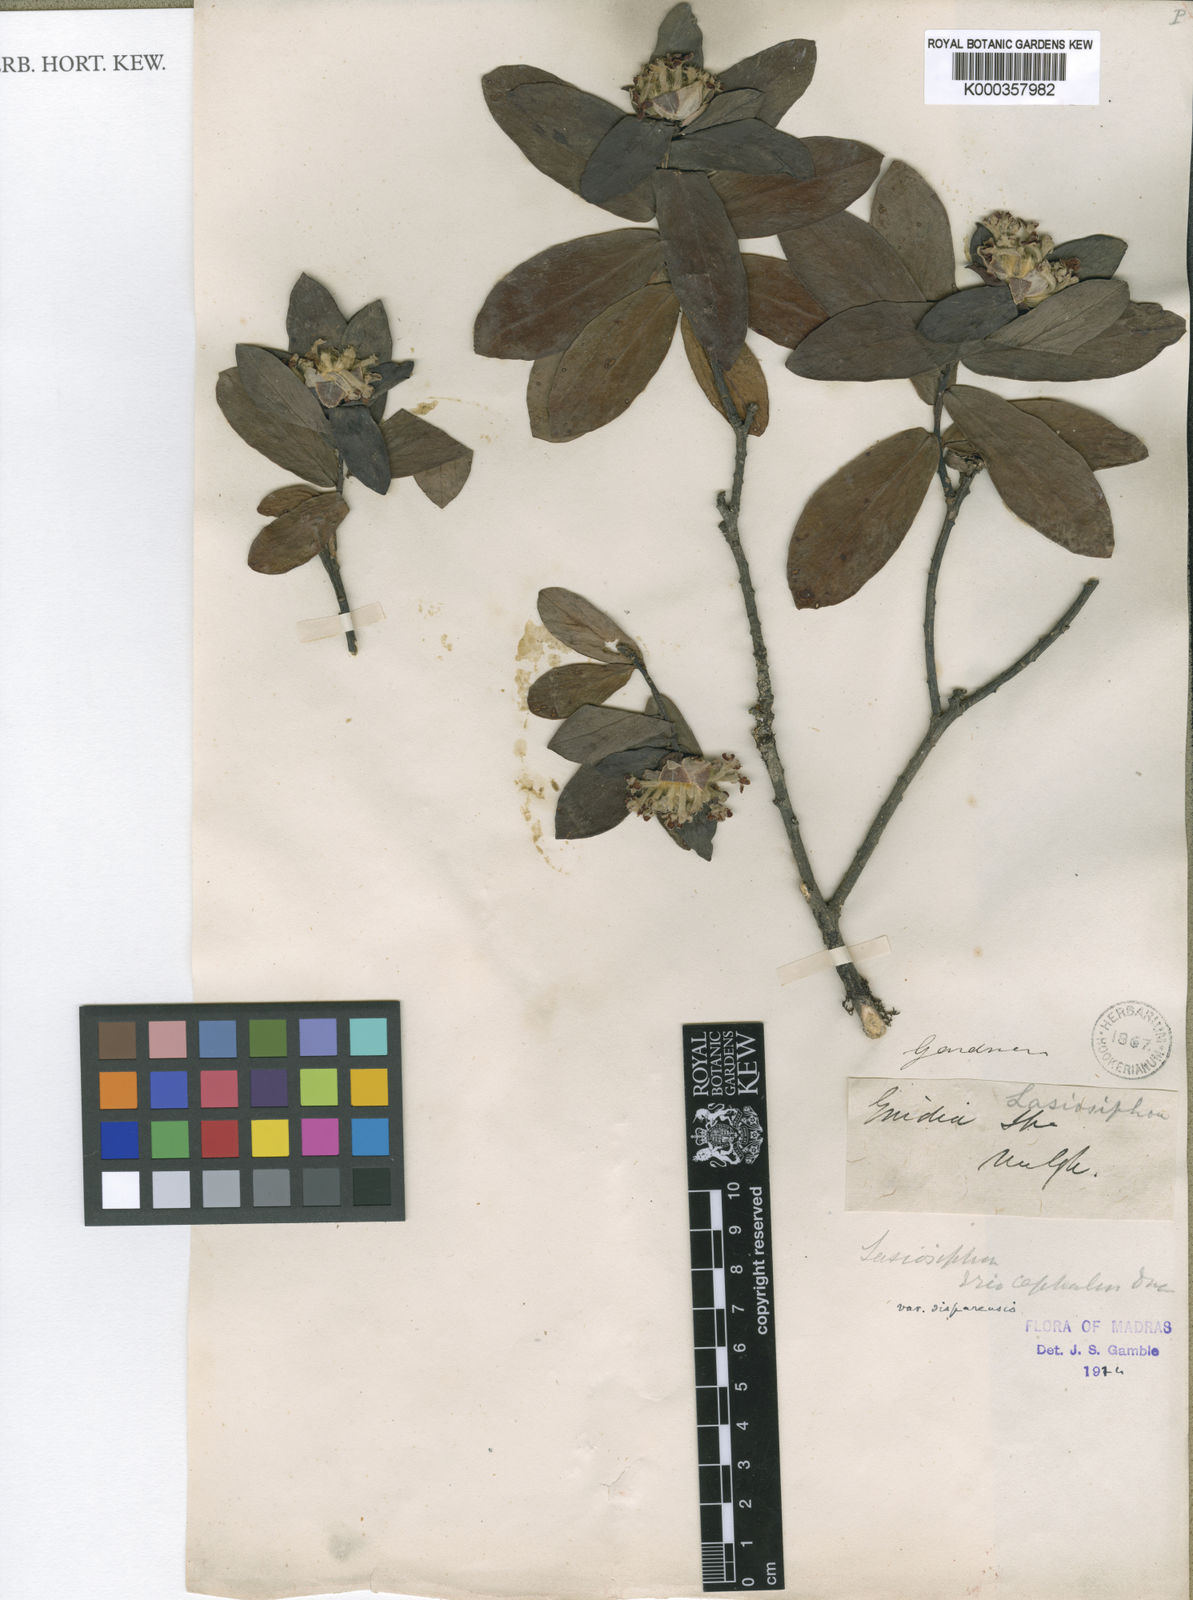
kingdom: Plantae
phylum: Tracheophyta
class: Magnoliopsida
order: Malvales
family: Thymelaeaceae
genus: Gnidia
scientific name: Gnidia glauca
